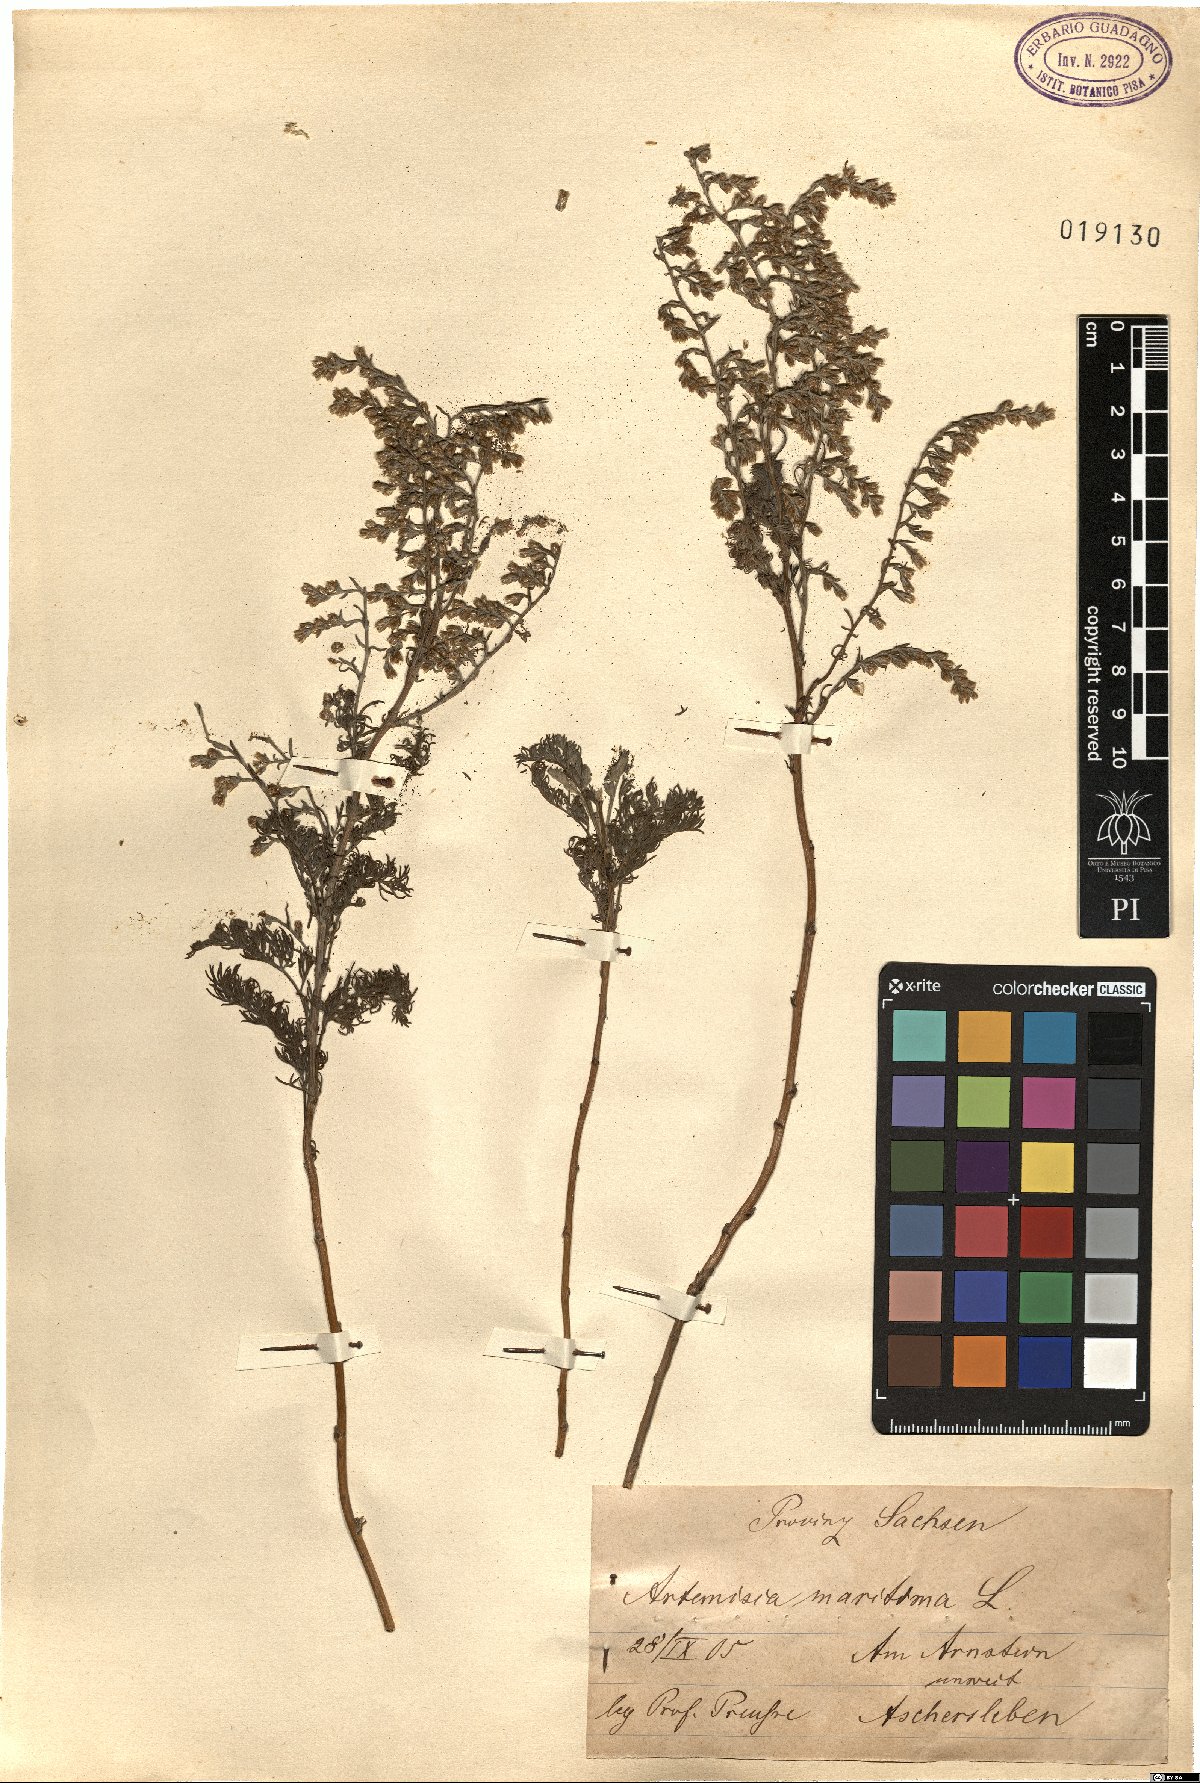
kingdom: Plantae
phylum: Tracheophyta
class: Magnoliopsida
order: Asterales
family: Asteraceae
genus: Artemisia
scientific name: Artemisia maritima
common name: Wormseed
